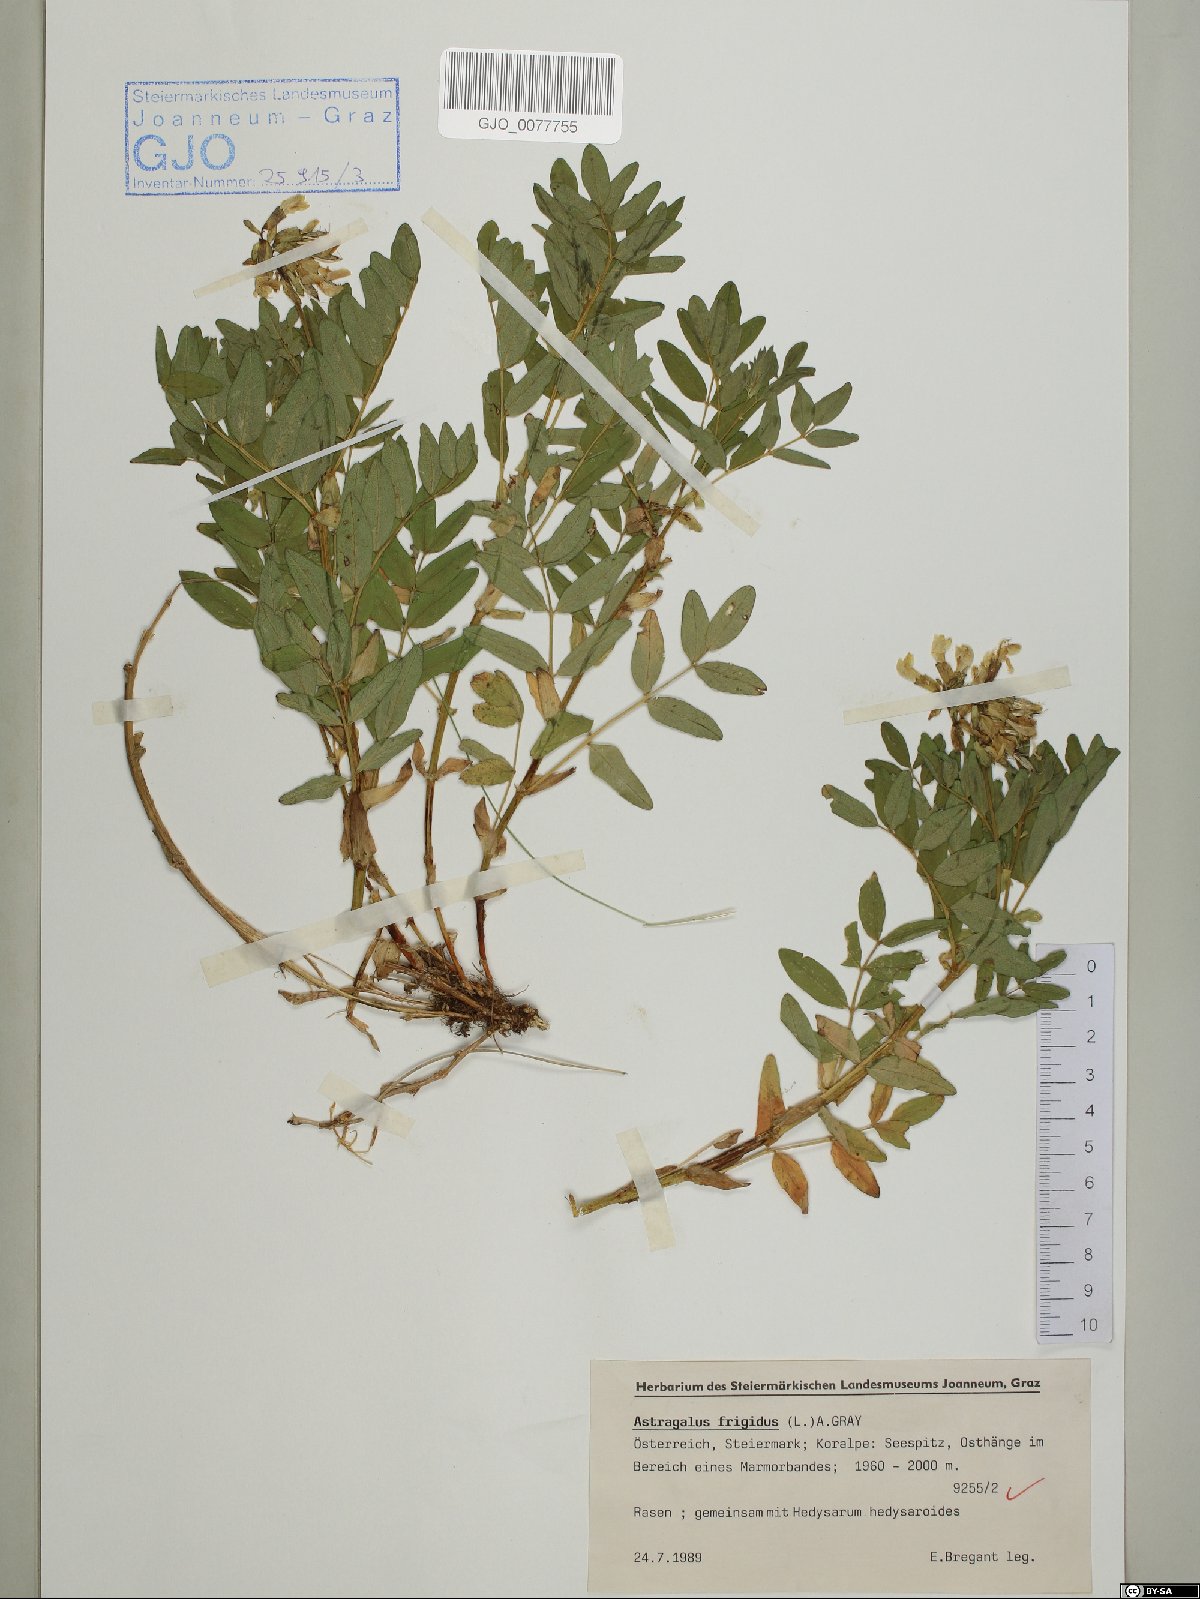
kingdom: Plantae
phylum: Tracheophyta
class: Magnoliopsida
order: Fabales
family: Fabaceae
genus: Astragalus
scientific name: Astragalus frigidus
